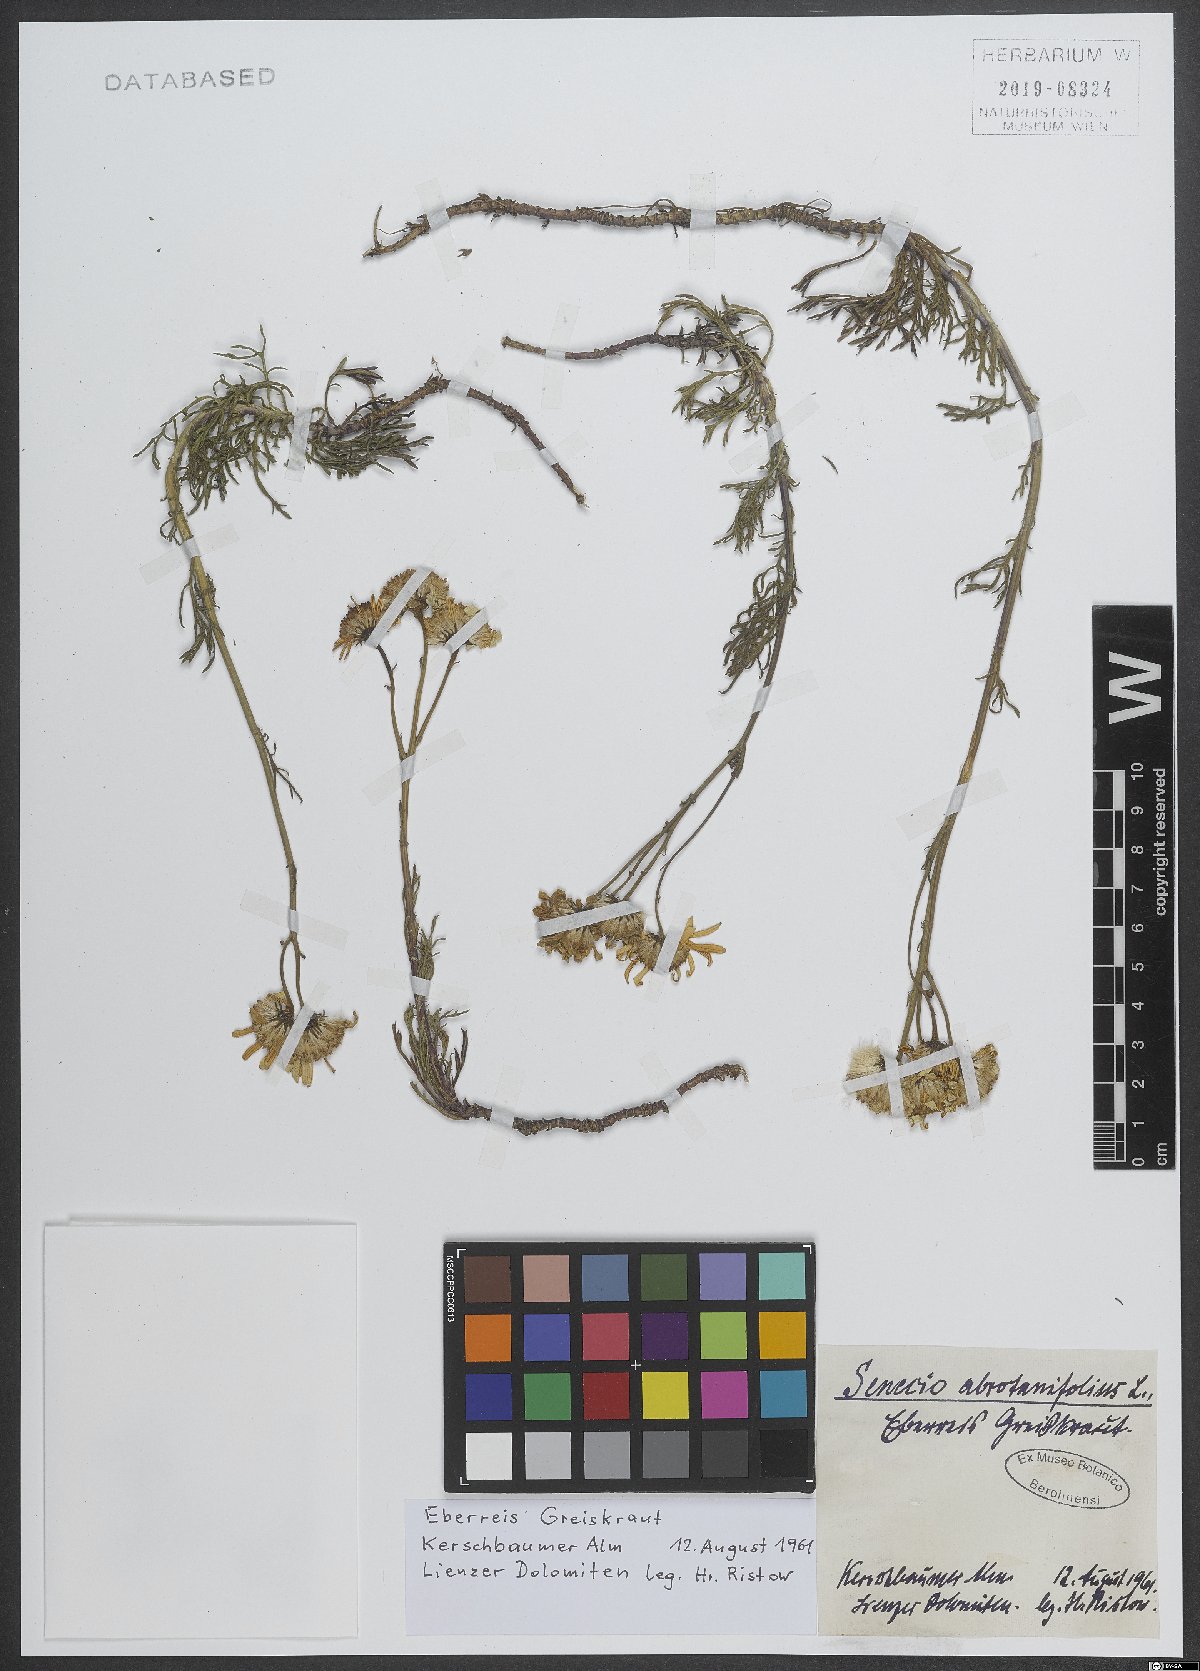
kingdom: Plantae
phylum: Tracheophyta
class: Magnoliopsida
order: Asterales
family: Asteraceae
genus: Jacobaea
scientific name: Jacobaea abrotanifolia
